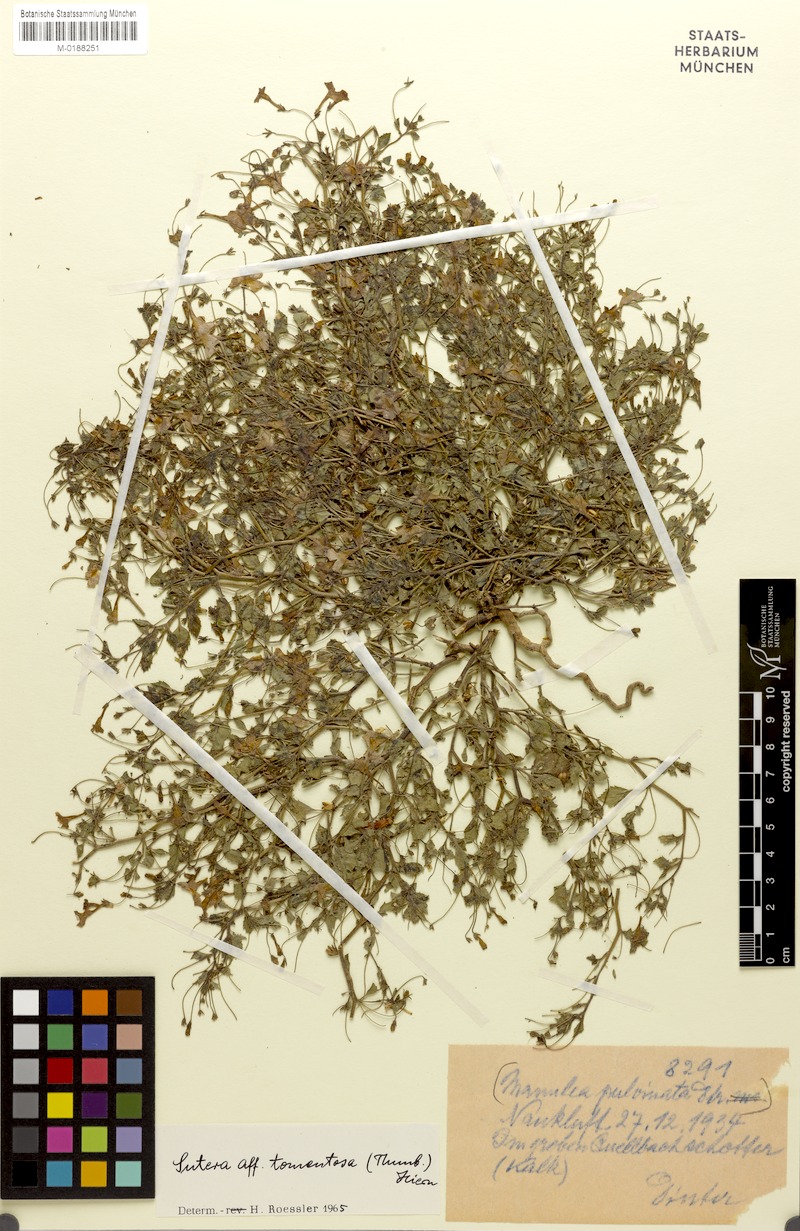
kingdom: Plantae
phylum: Tracheophyta
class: Magnoliopsida
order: Lamiales
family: Scrophulariaceae
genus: Jamesbrittenia
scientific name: Jamesbrittenia thunbergii
